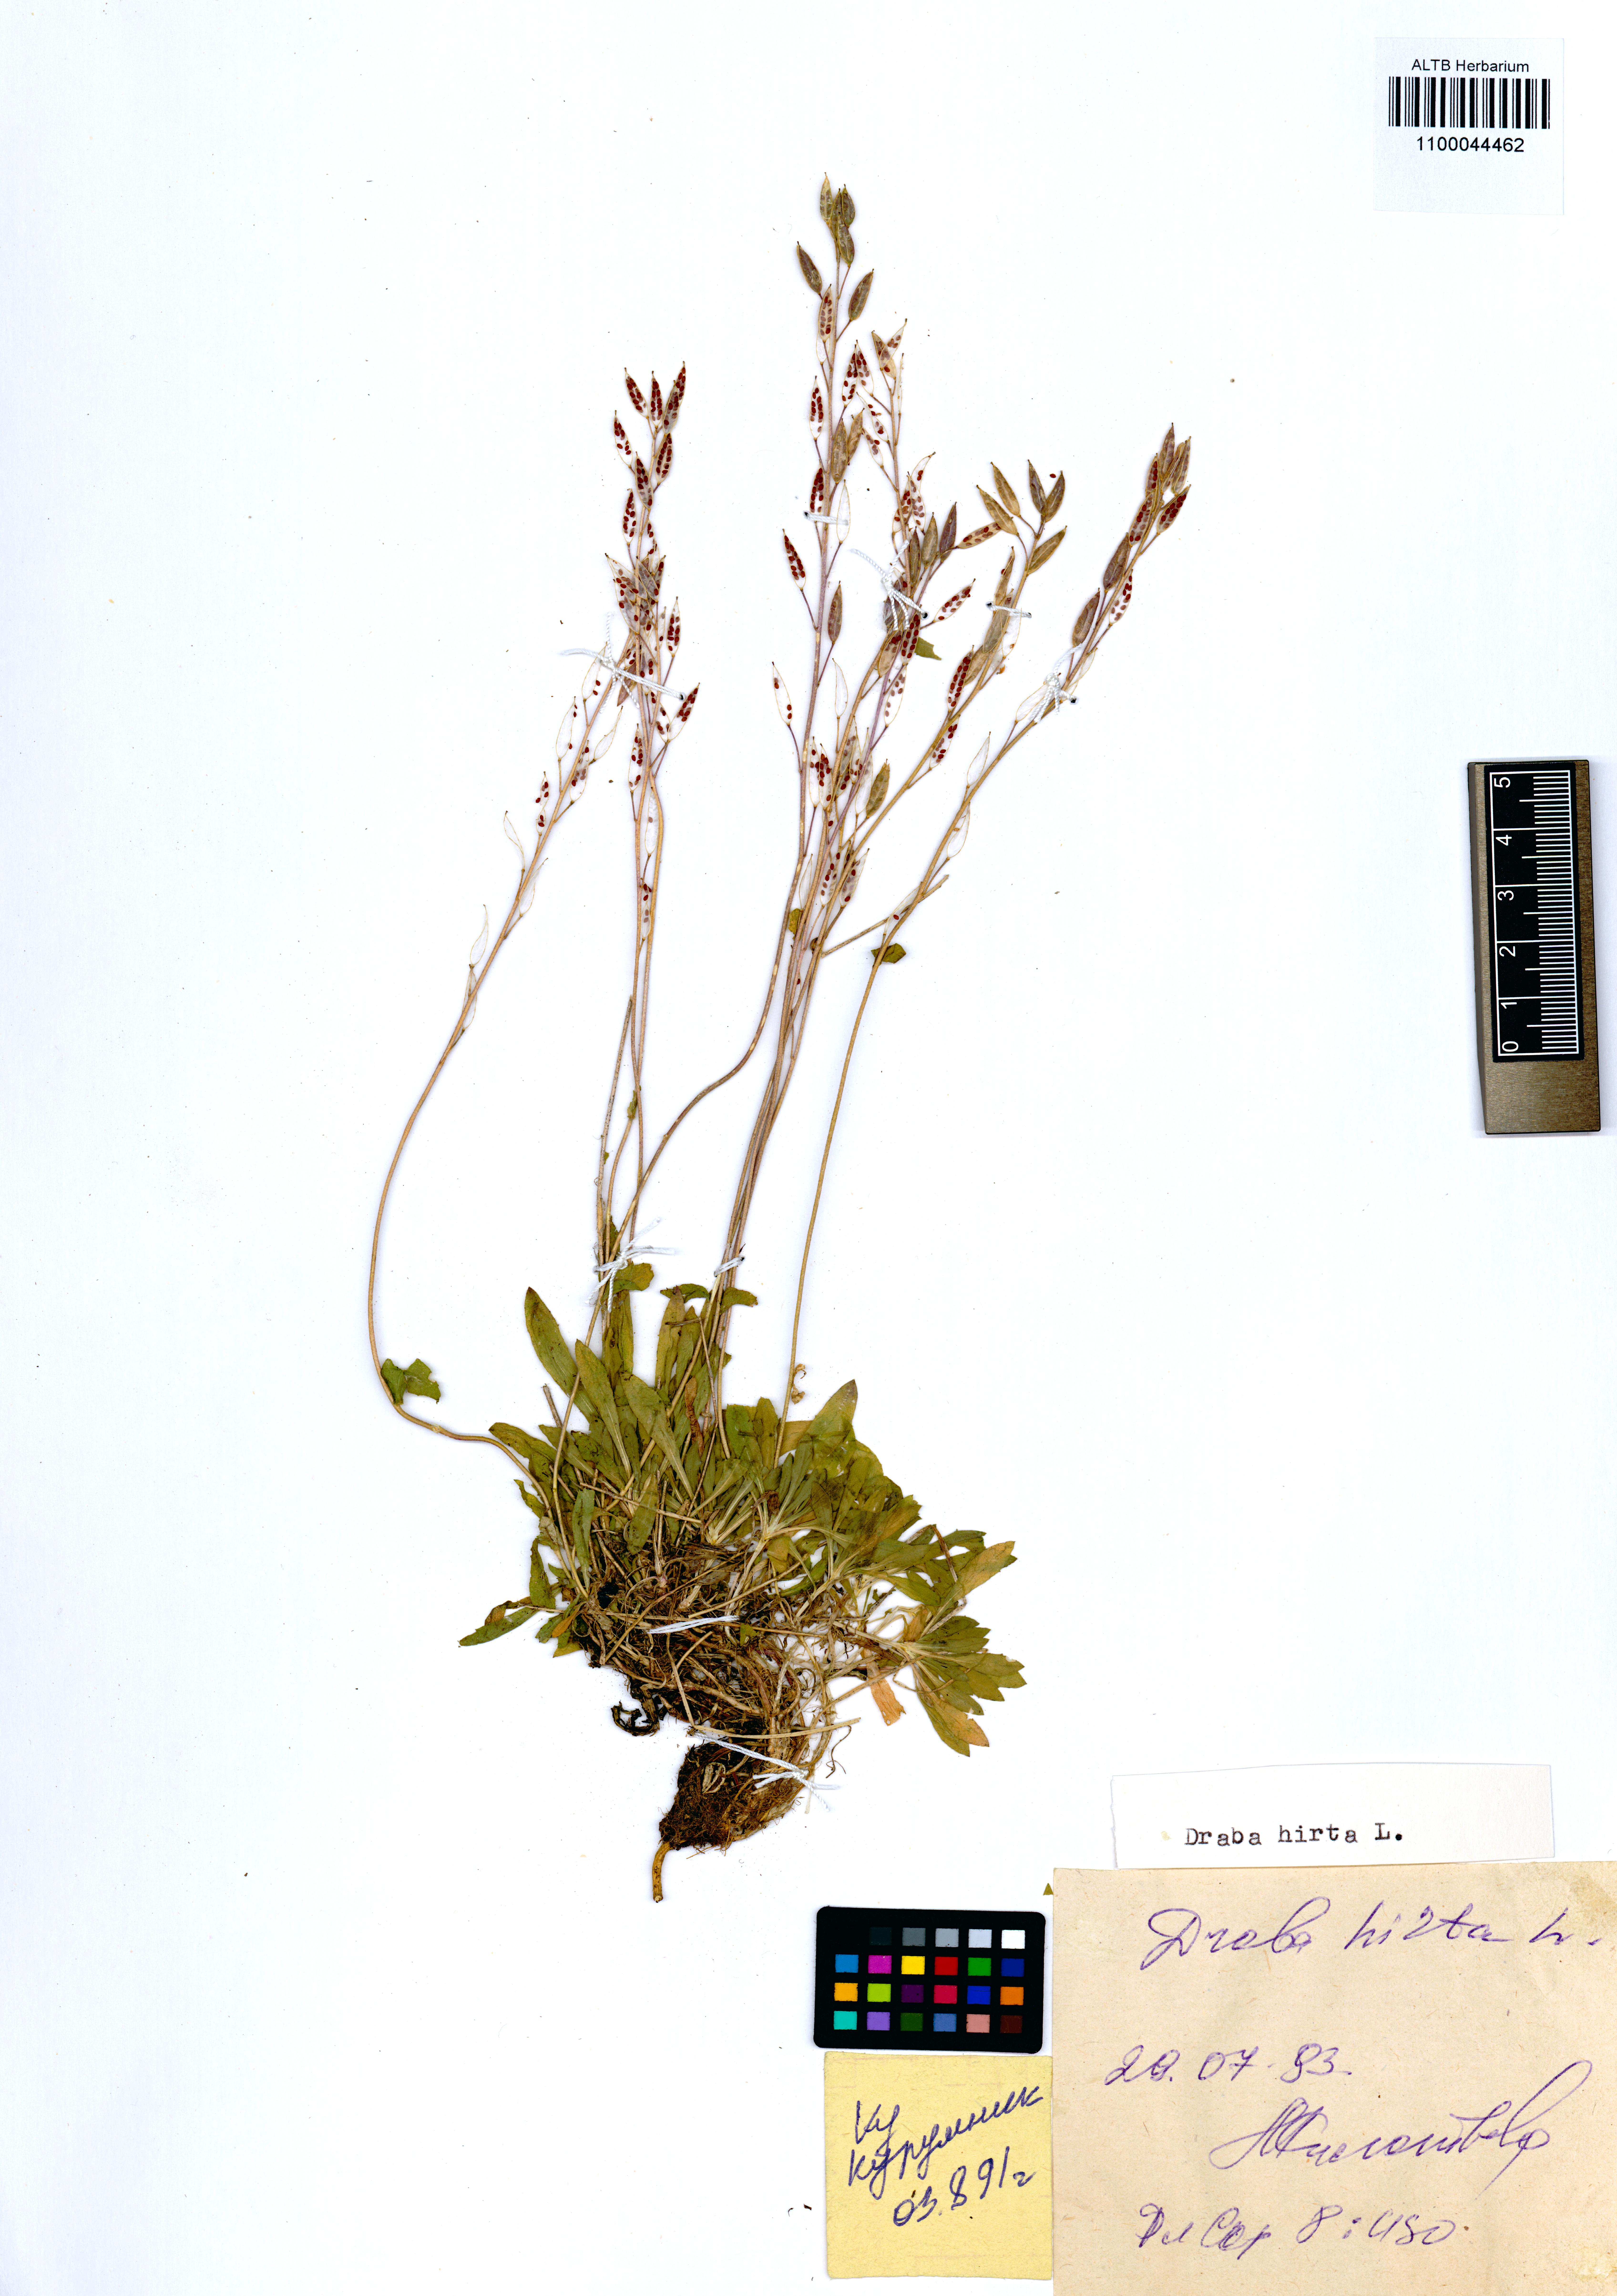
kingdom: Plantae
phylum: Tracheophyta
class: Magnoliopsida
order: Brassicales
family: Brassicaceae
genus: Draba
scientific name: Draba glabella
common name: Glaucous draba
